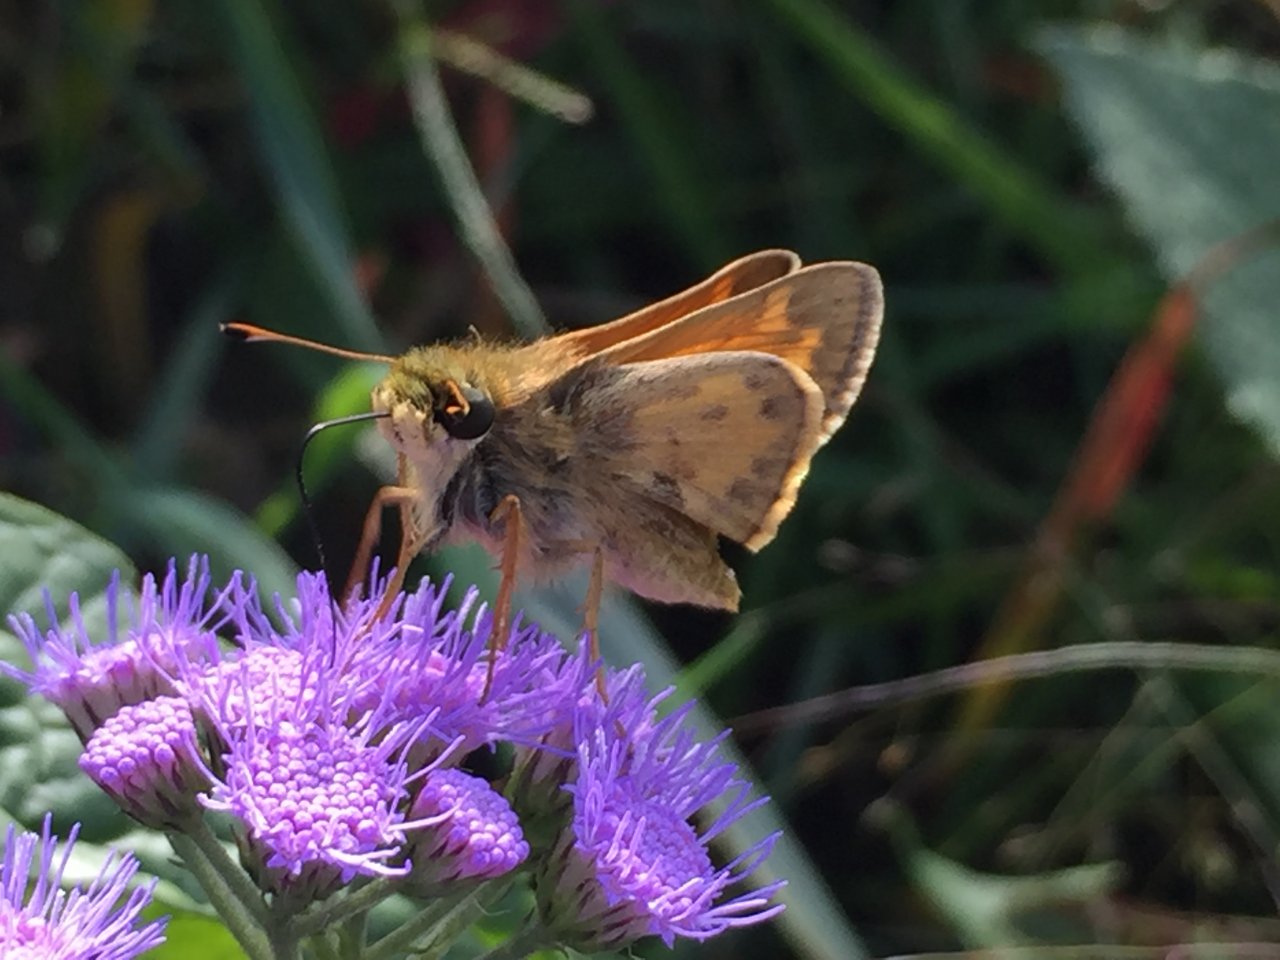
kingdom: Animalia
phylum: Arthropoda
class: Insecta
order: Lepidoptera
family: Hesperiidae
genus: Atalopedes
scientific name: Atalopedes campestris
